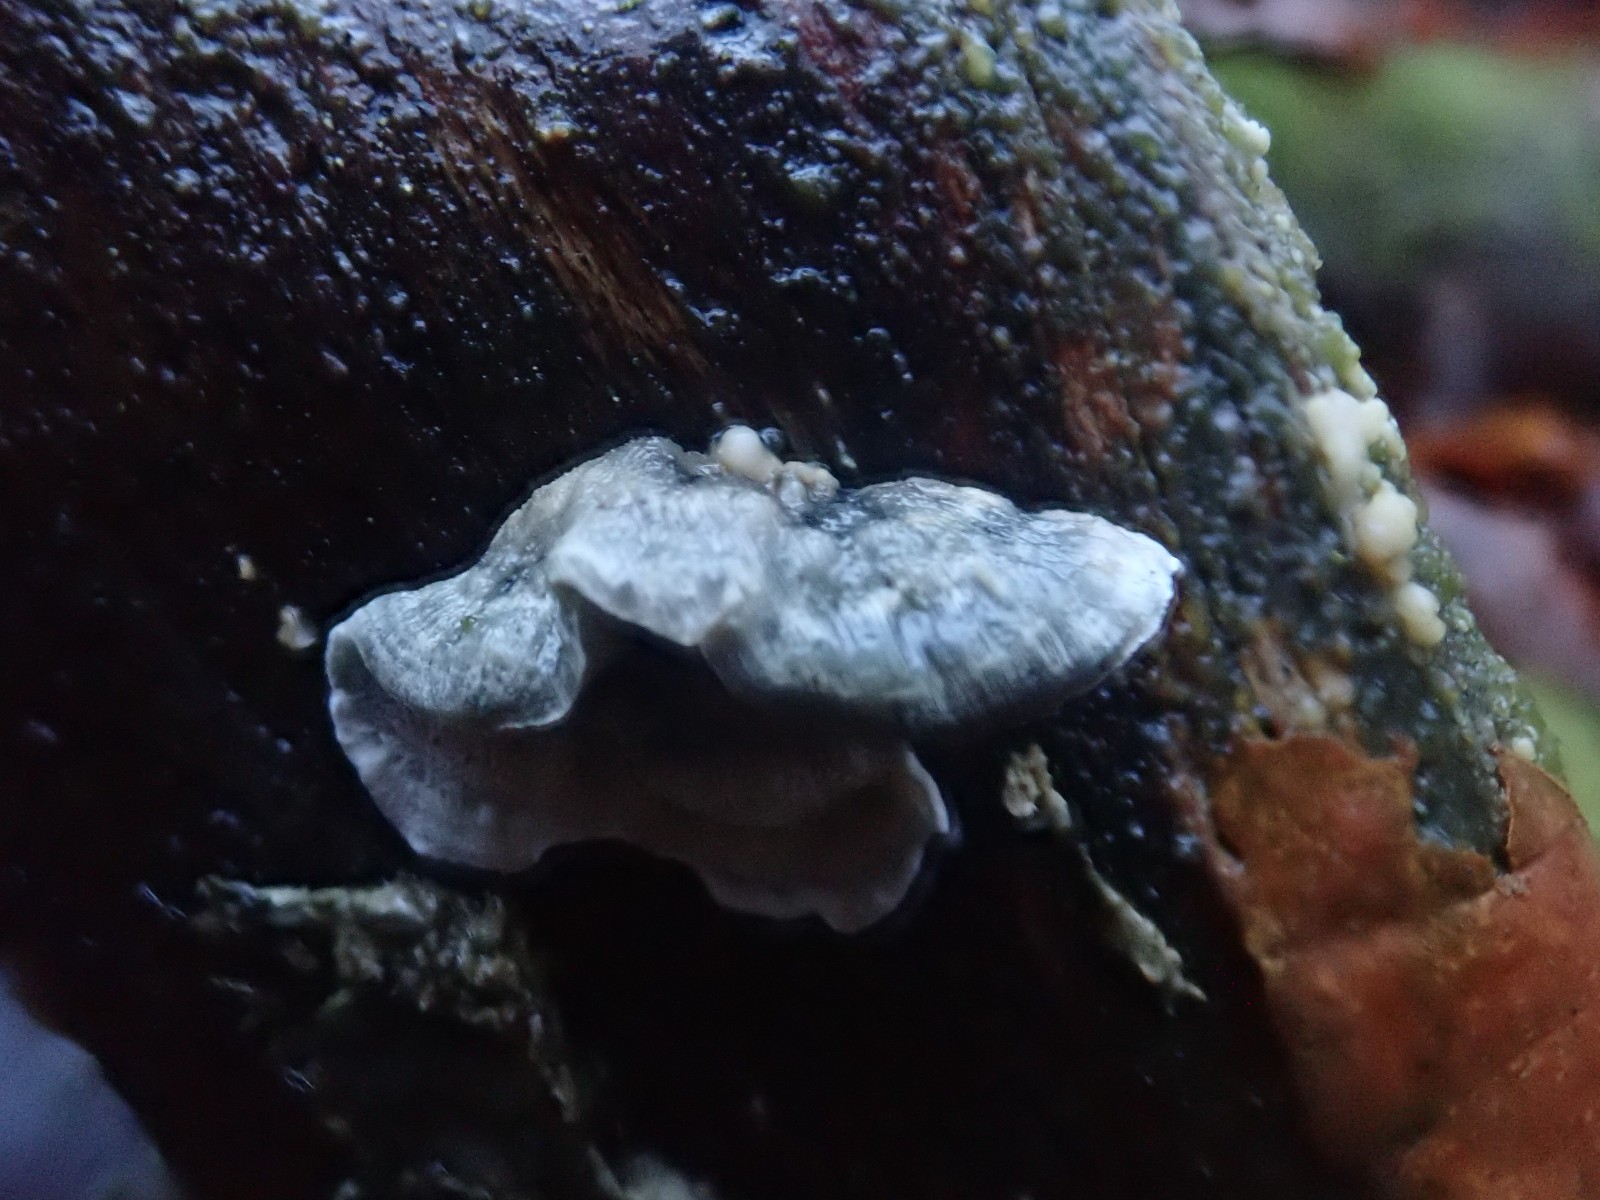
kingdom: Fungi
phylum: Basidiomycota
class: Agaricomycetes
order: Polyporales
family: Polyporaceae
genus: Cyanosporus
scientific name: Cyanosporus alni
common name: blegblå kødporesvamp
